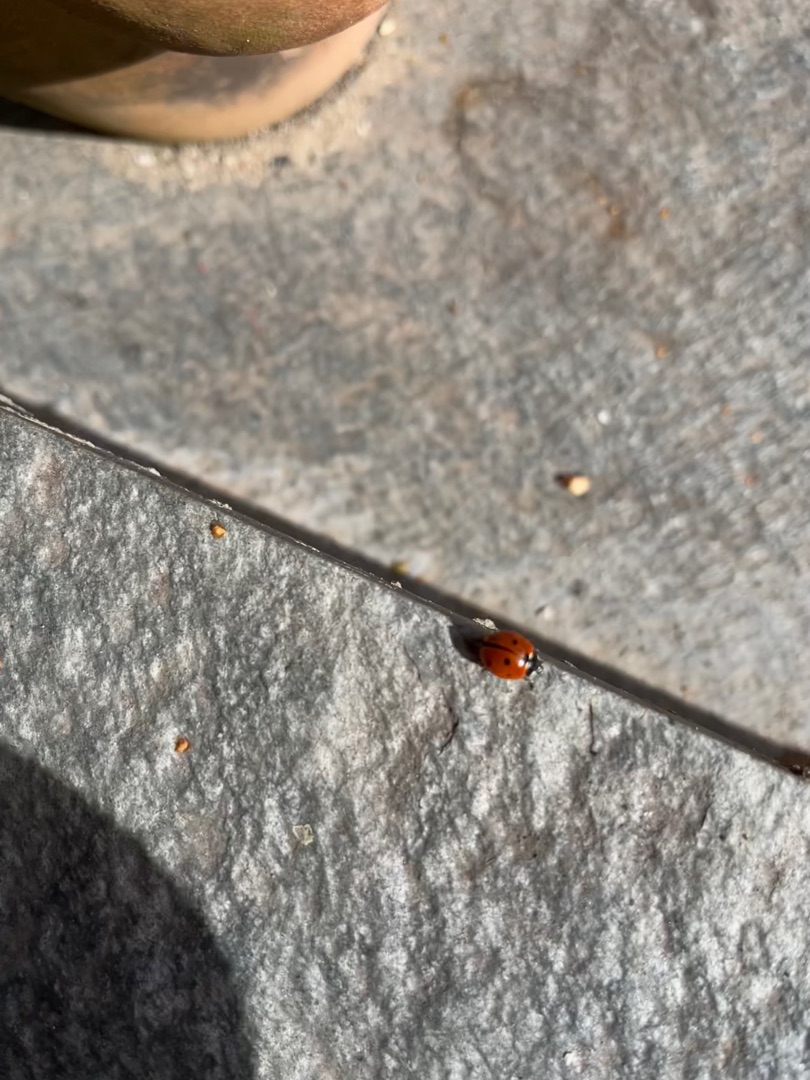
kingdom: Animalia
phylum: Arthropoda
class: Insecta
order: Coleoptera
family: Coccinellidae
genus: Coccinella
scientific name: Coccinella septempunctata
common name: Syvplettet mariehøne
